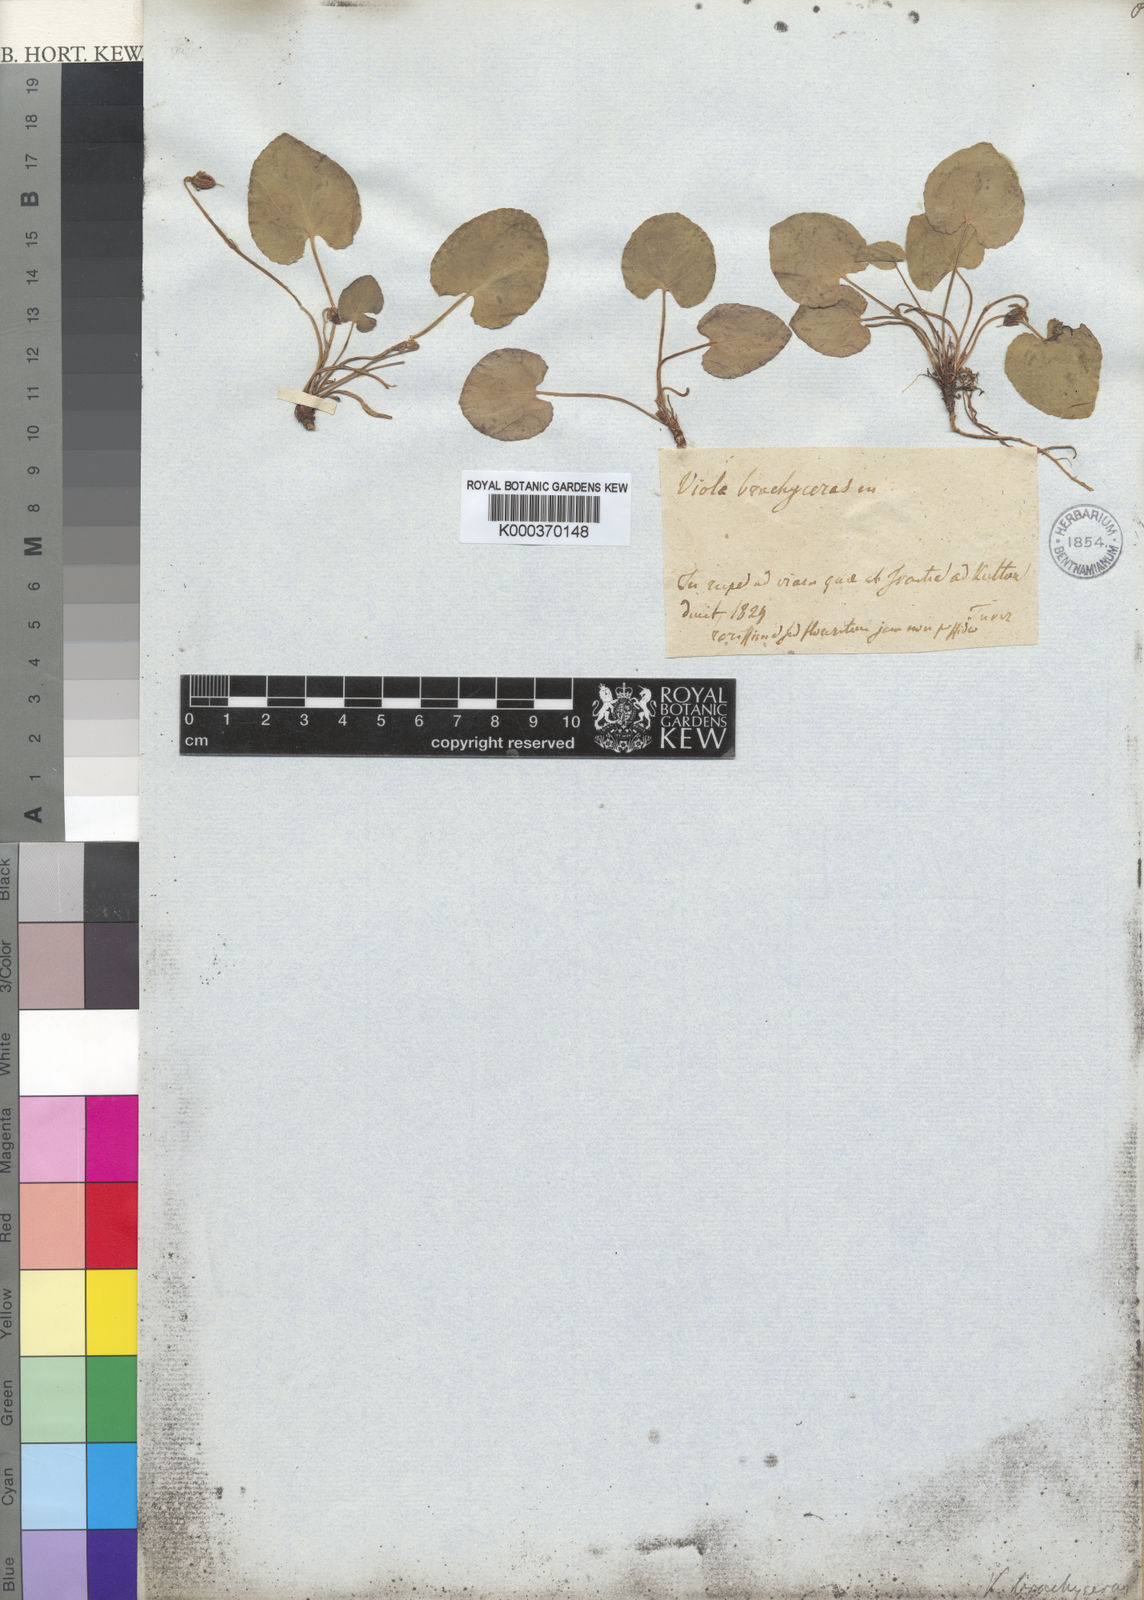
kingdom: Plantae
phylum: Tracheophyta
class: Magnoliopsida
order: Malpighiales
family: Violaceae
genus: Viola
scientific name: Viola epipsila
